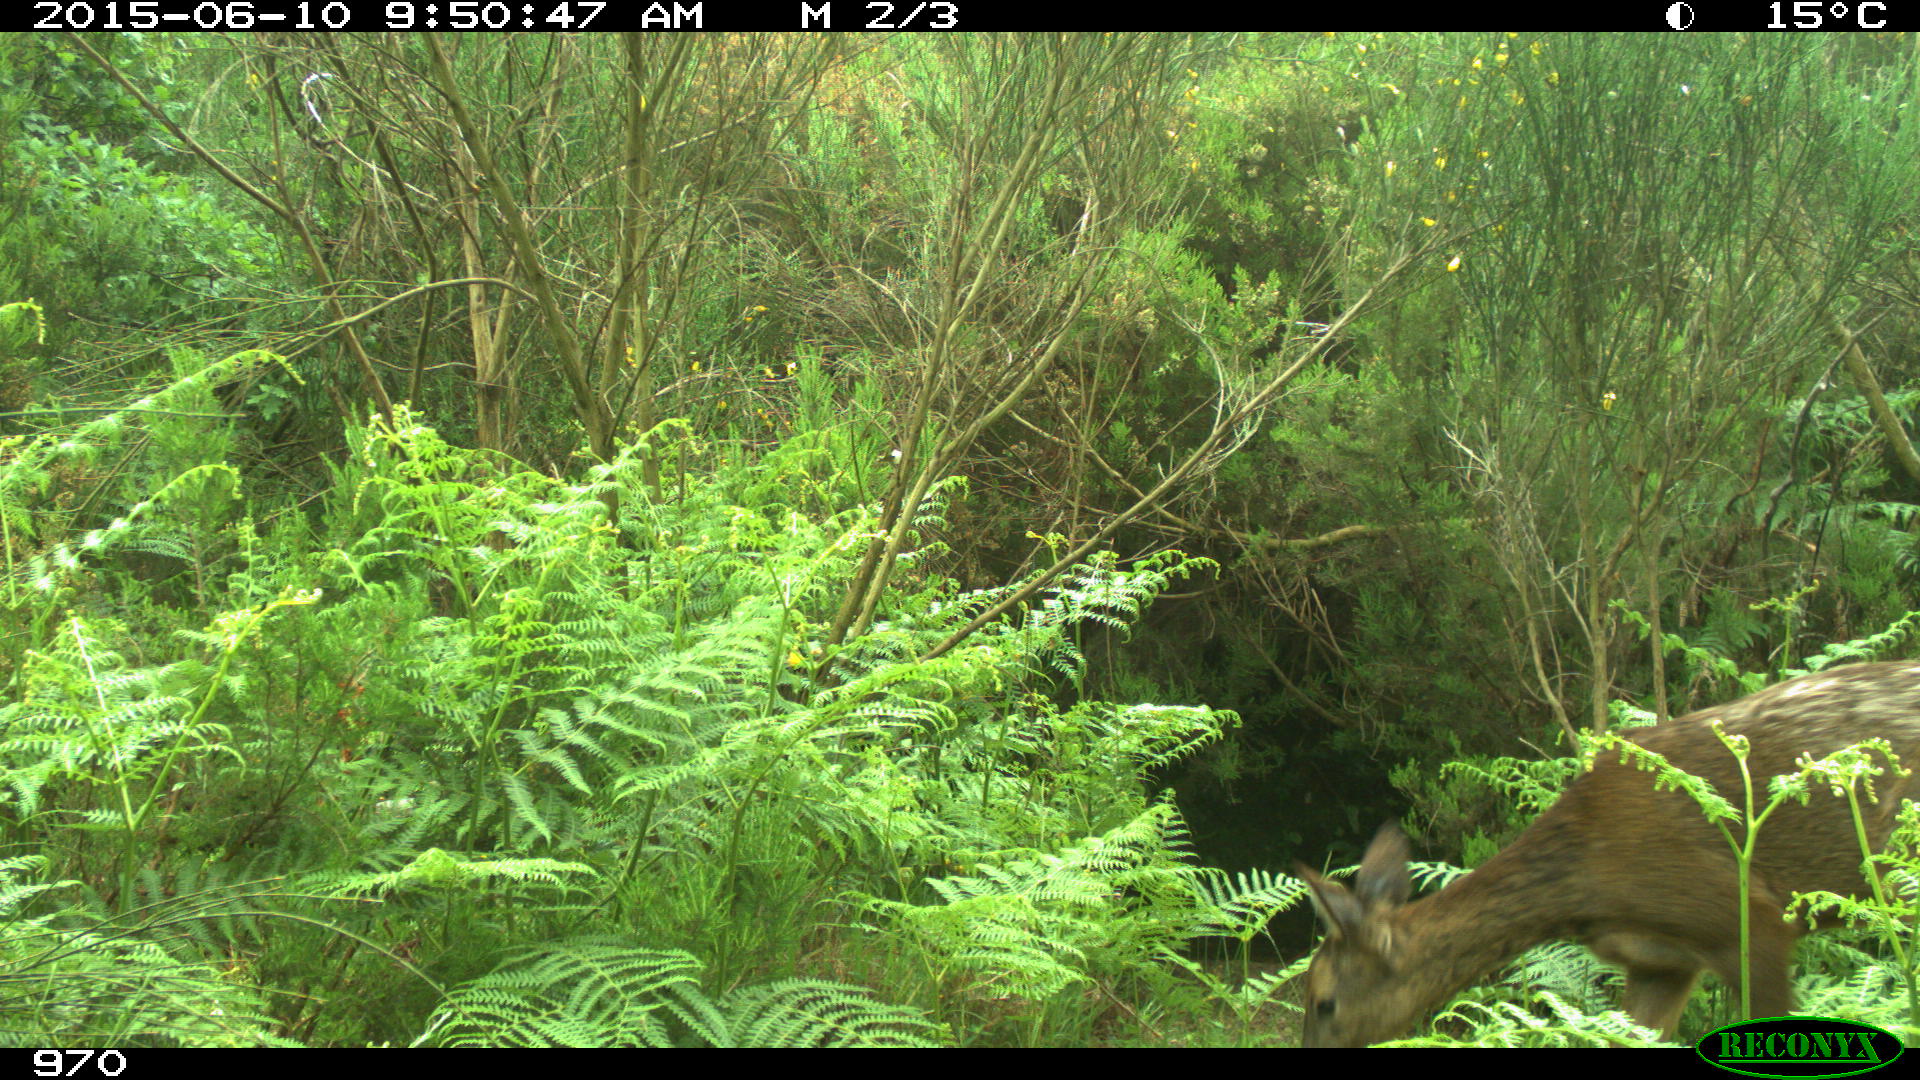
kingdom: Animalia
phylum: Chordata
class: Mammalia
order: Artiodactyla
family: Cervidae
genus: Capreolus
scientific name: Capreolus capreolus
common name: Western roe deer
